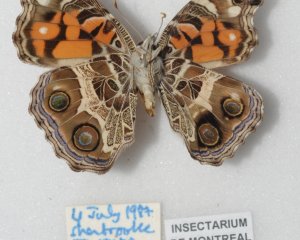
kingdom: Animalia
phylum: Arthropoda
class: Insecta
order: Lepidoptera
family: Nymphalidae
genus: Vanessa
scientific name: Vanessa virginiensis
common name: American Lady
